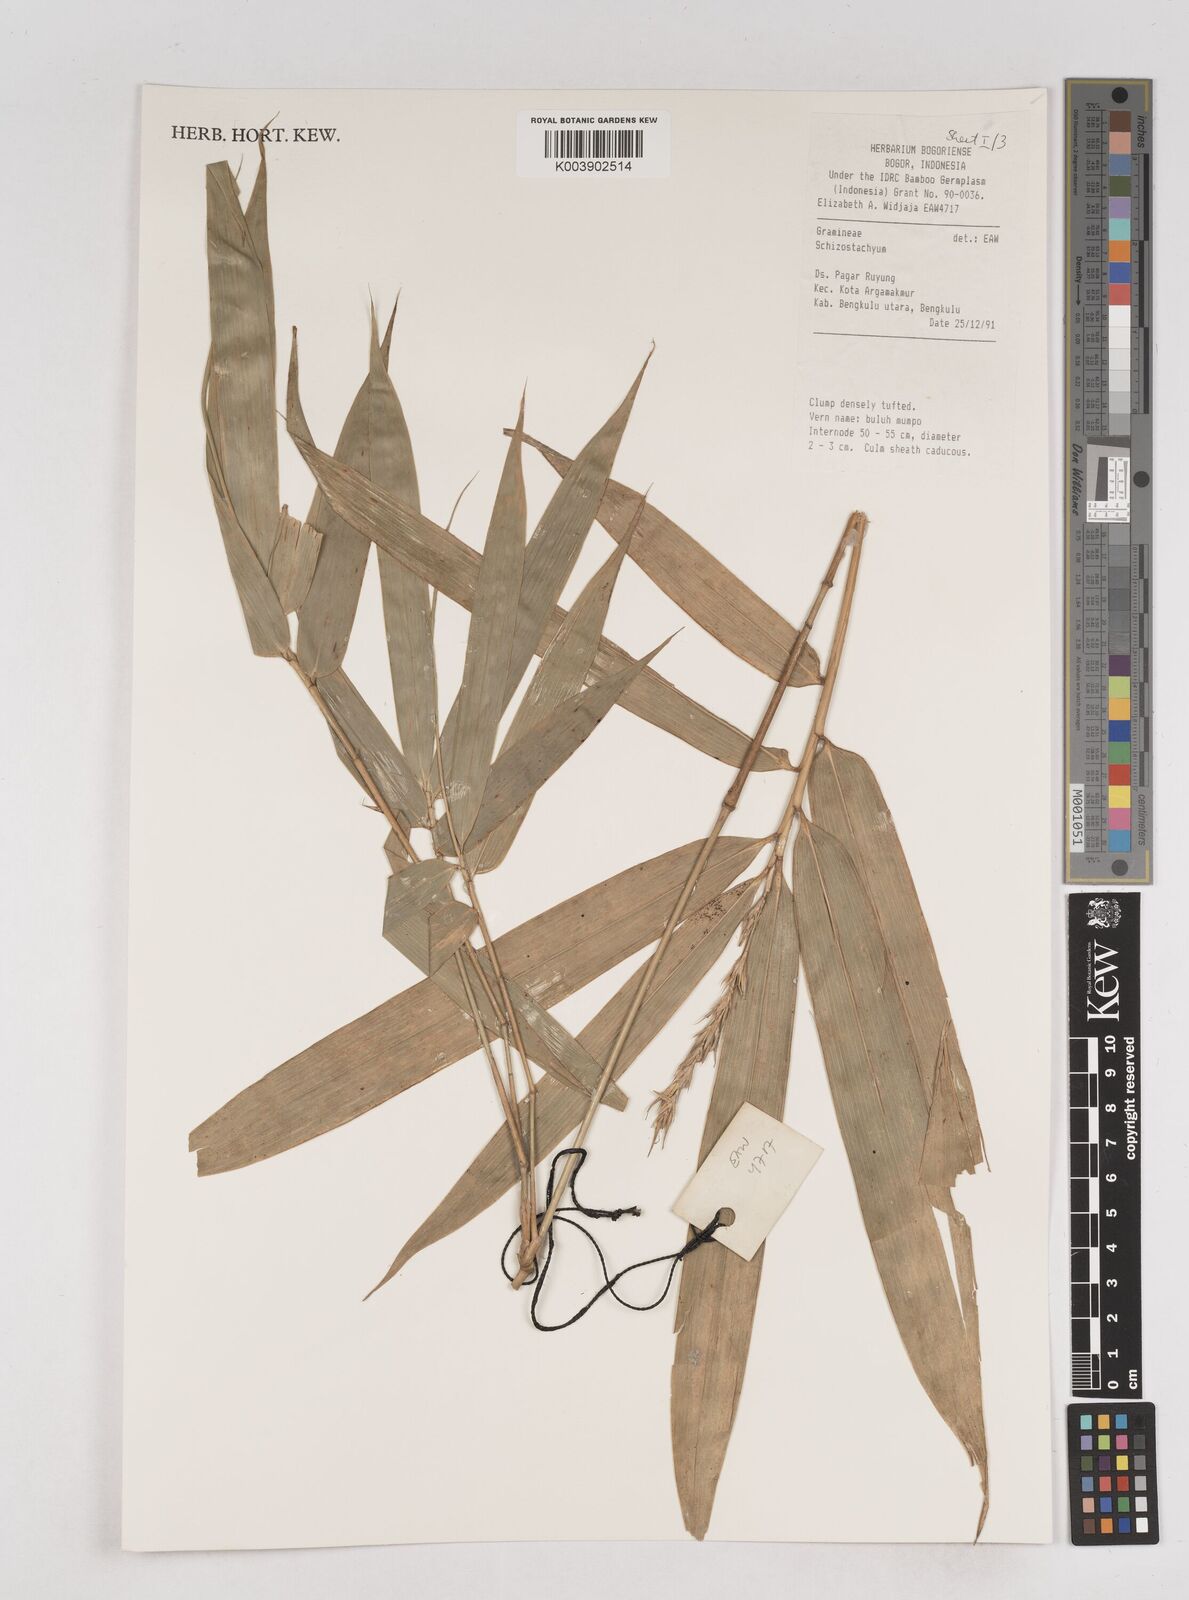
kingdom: Plantae
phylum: Tracheophyta
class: Liliopsida
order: Poales
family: Poaceae
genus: Schizostachyum
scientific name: Schizostachyum
